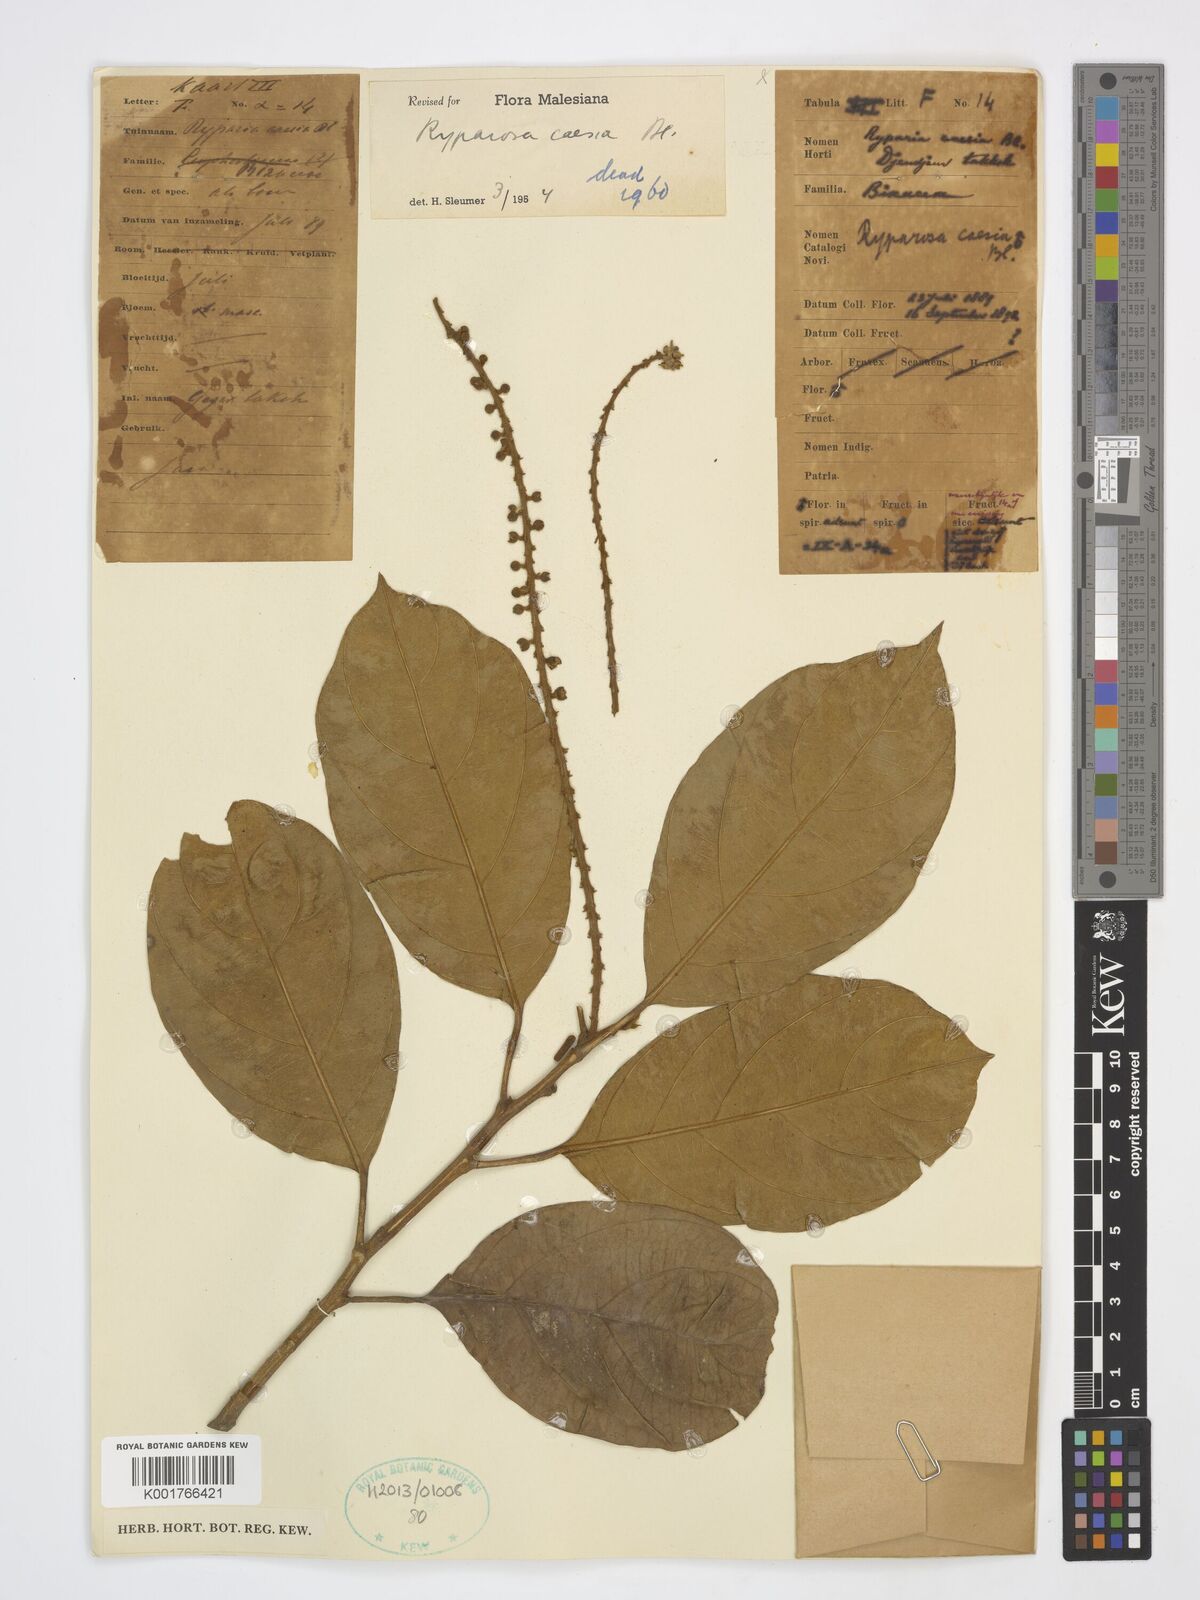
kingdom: Plantae
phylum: Tracheophyta
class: Magnoliopsida
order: Malpighiales
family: Achariaceae
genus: Ryparosa
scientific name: Ryparosa caesia
